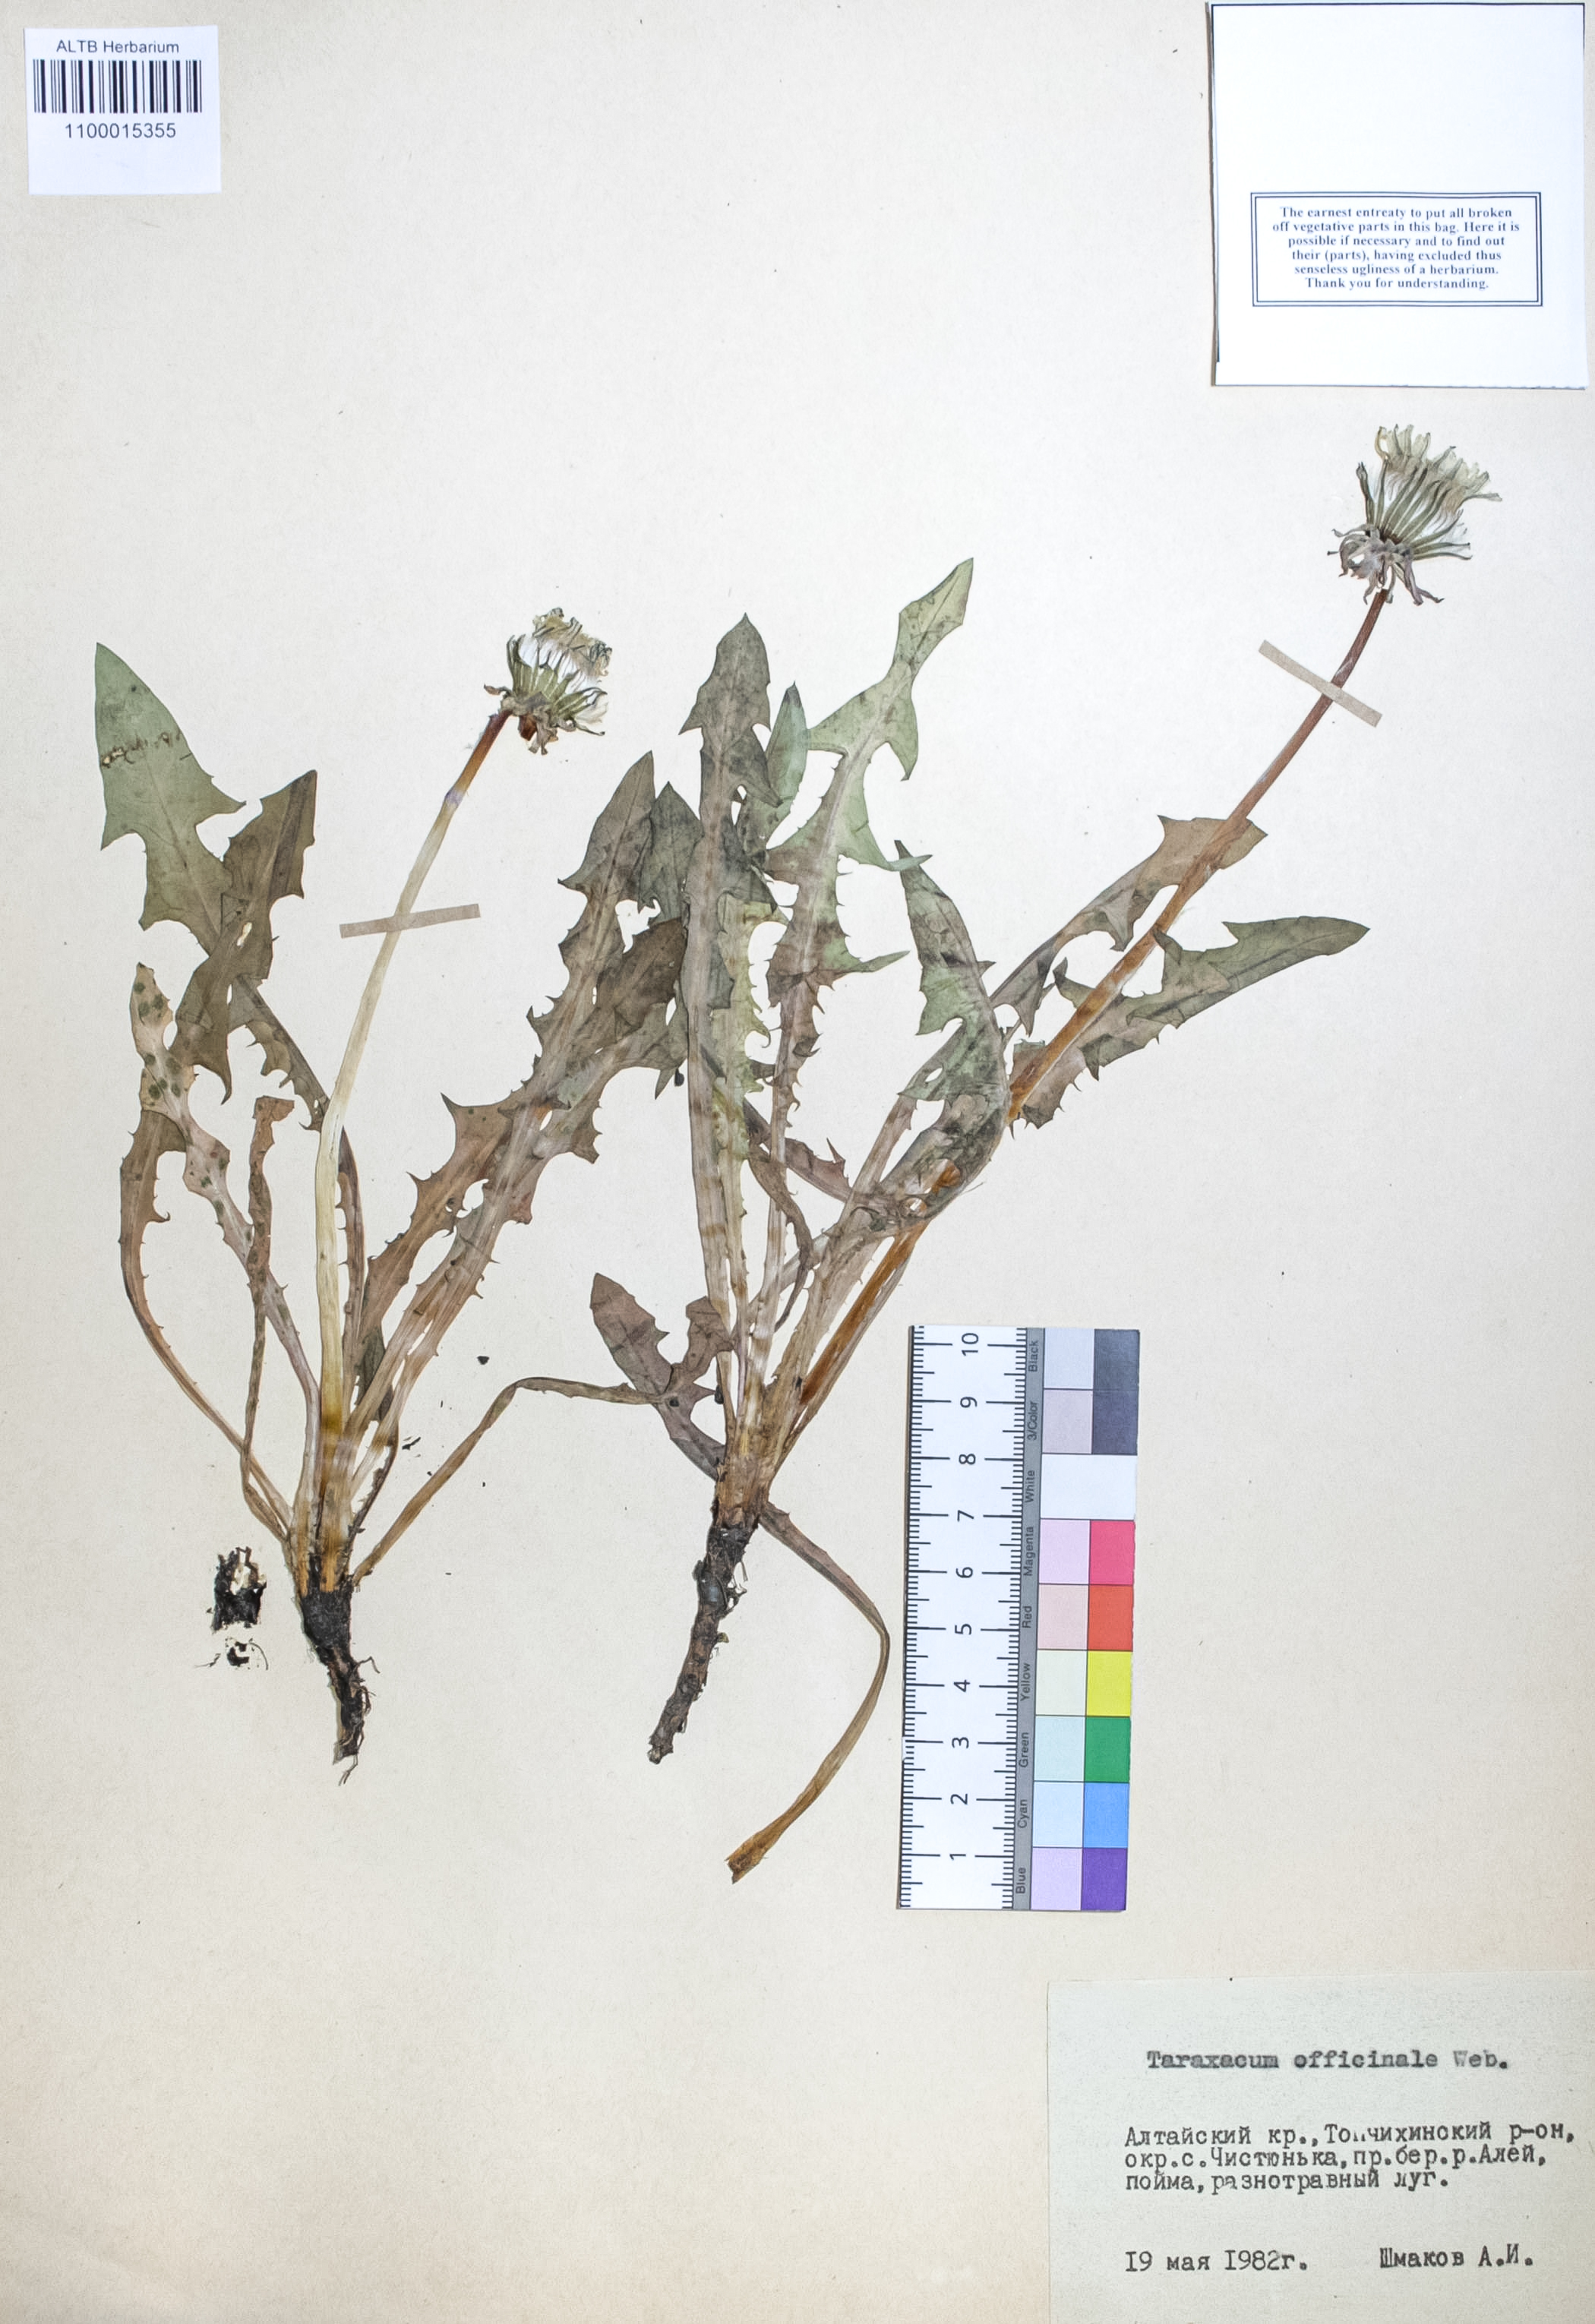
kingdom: Plantae
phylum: Tracheophyta
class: Magnoliopsida
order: Asterales
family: Asteraceae
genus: Taraxacum
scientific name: Taraxacum officinale
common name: Common dandelion
